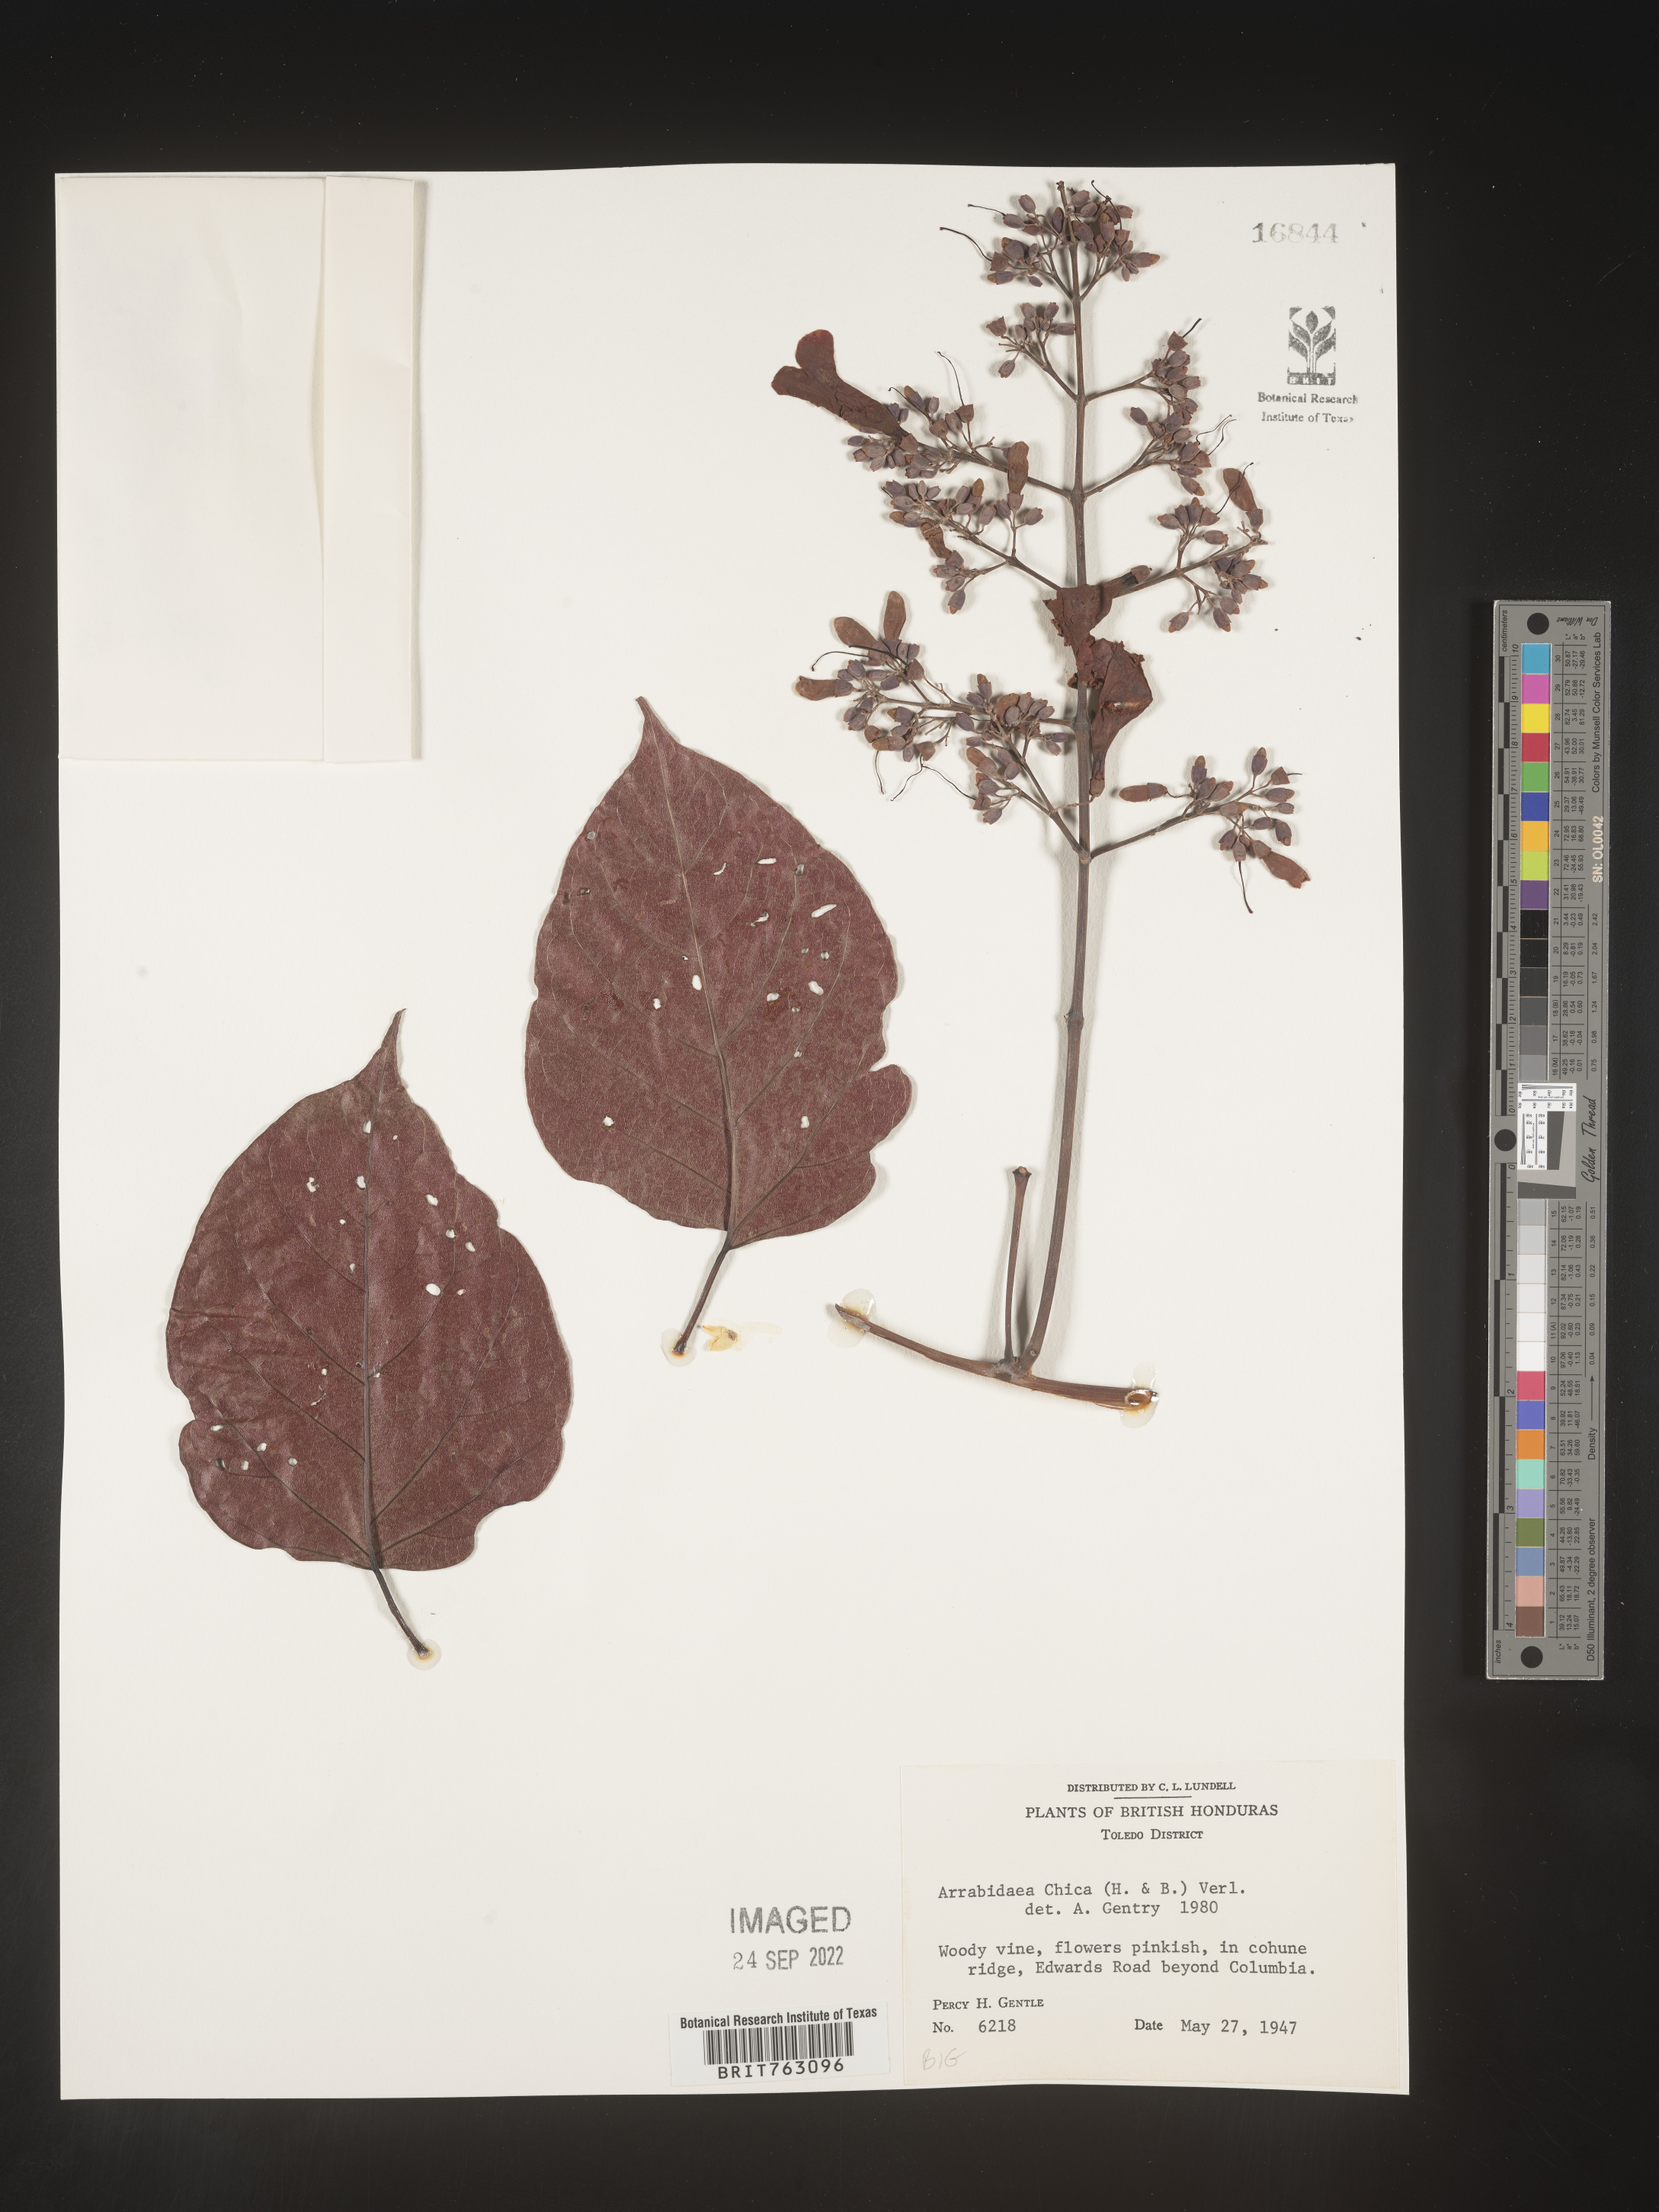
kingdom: Plantae
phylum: Tracheophyta
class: Magnoliopsida
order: Rosales
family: Rhamnaceae
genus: Arrabidaea
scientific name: Arrabidaea
